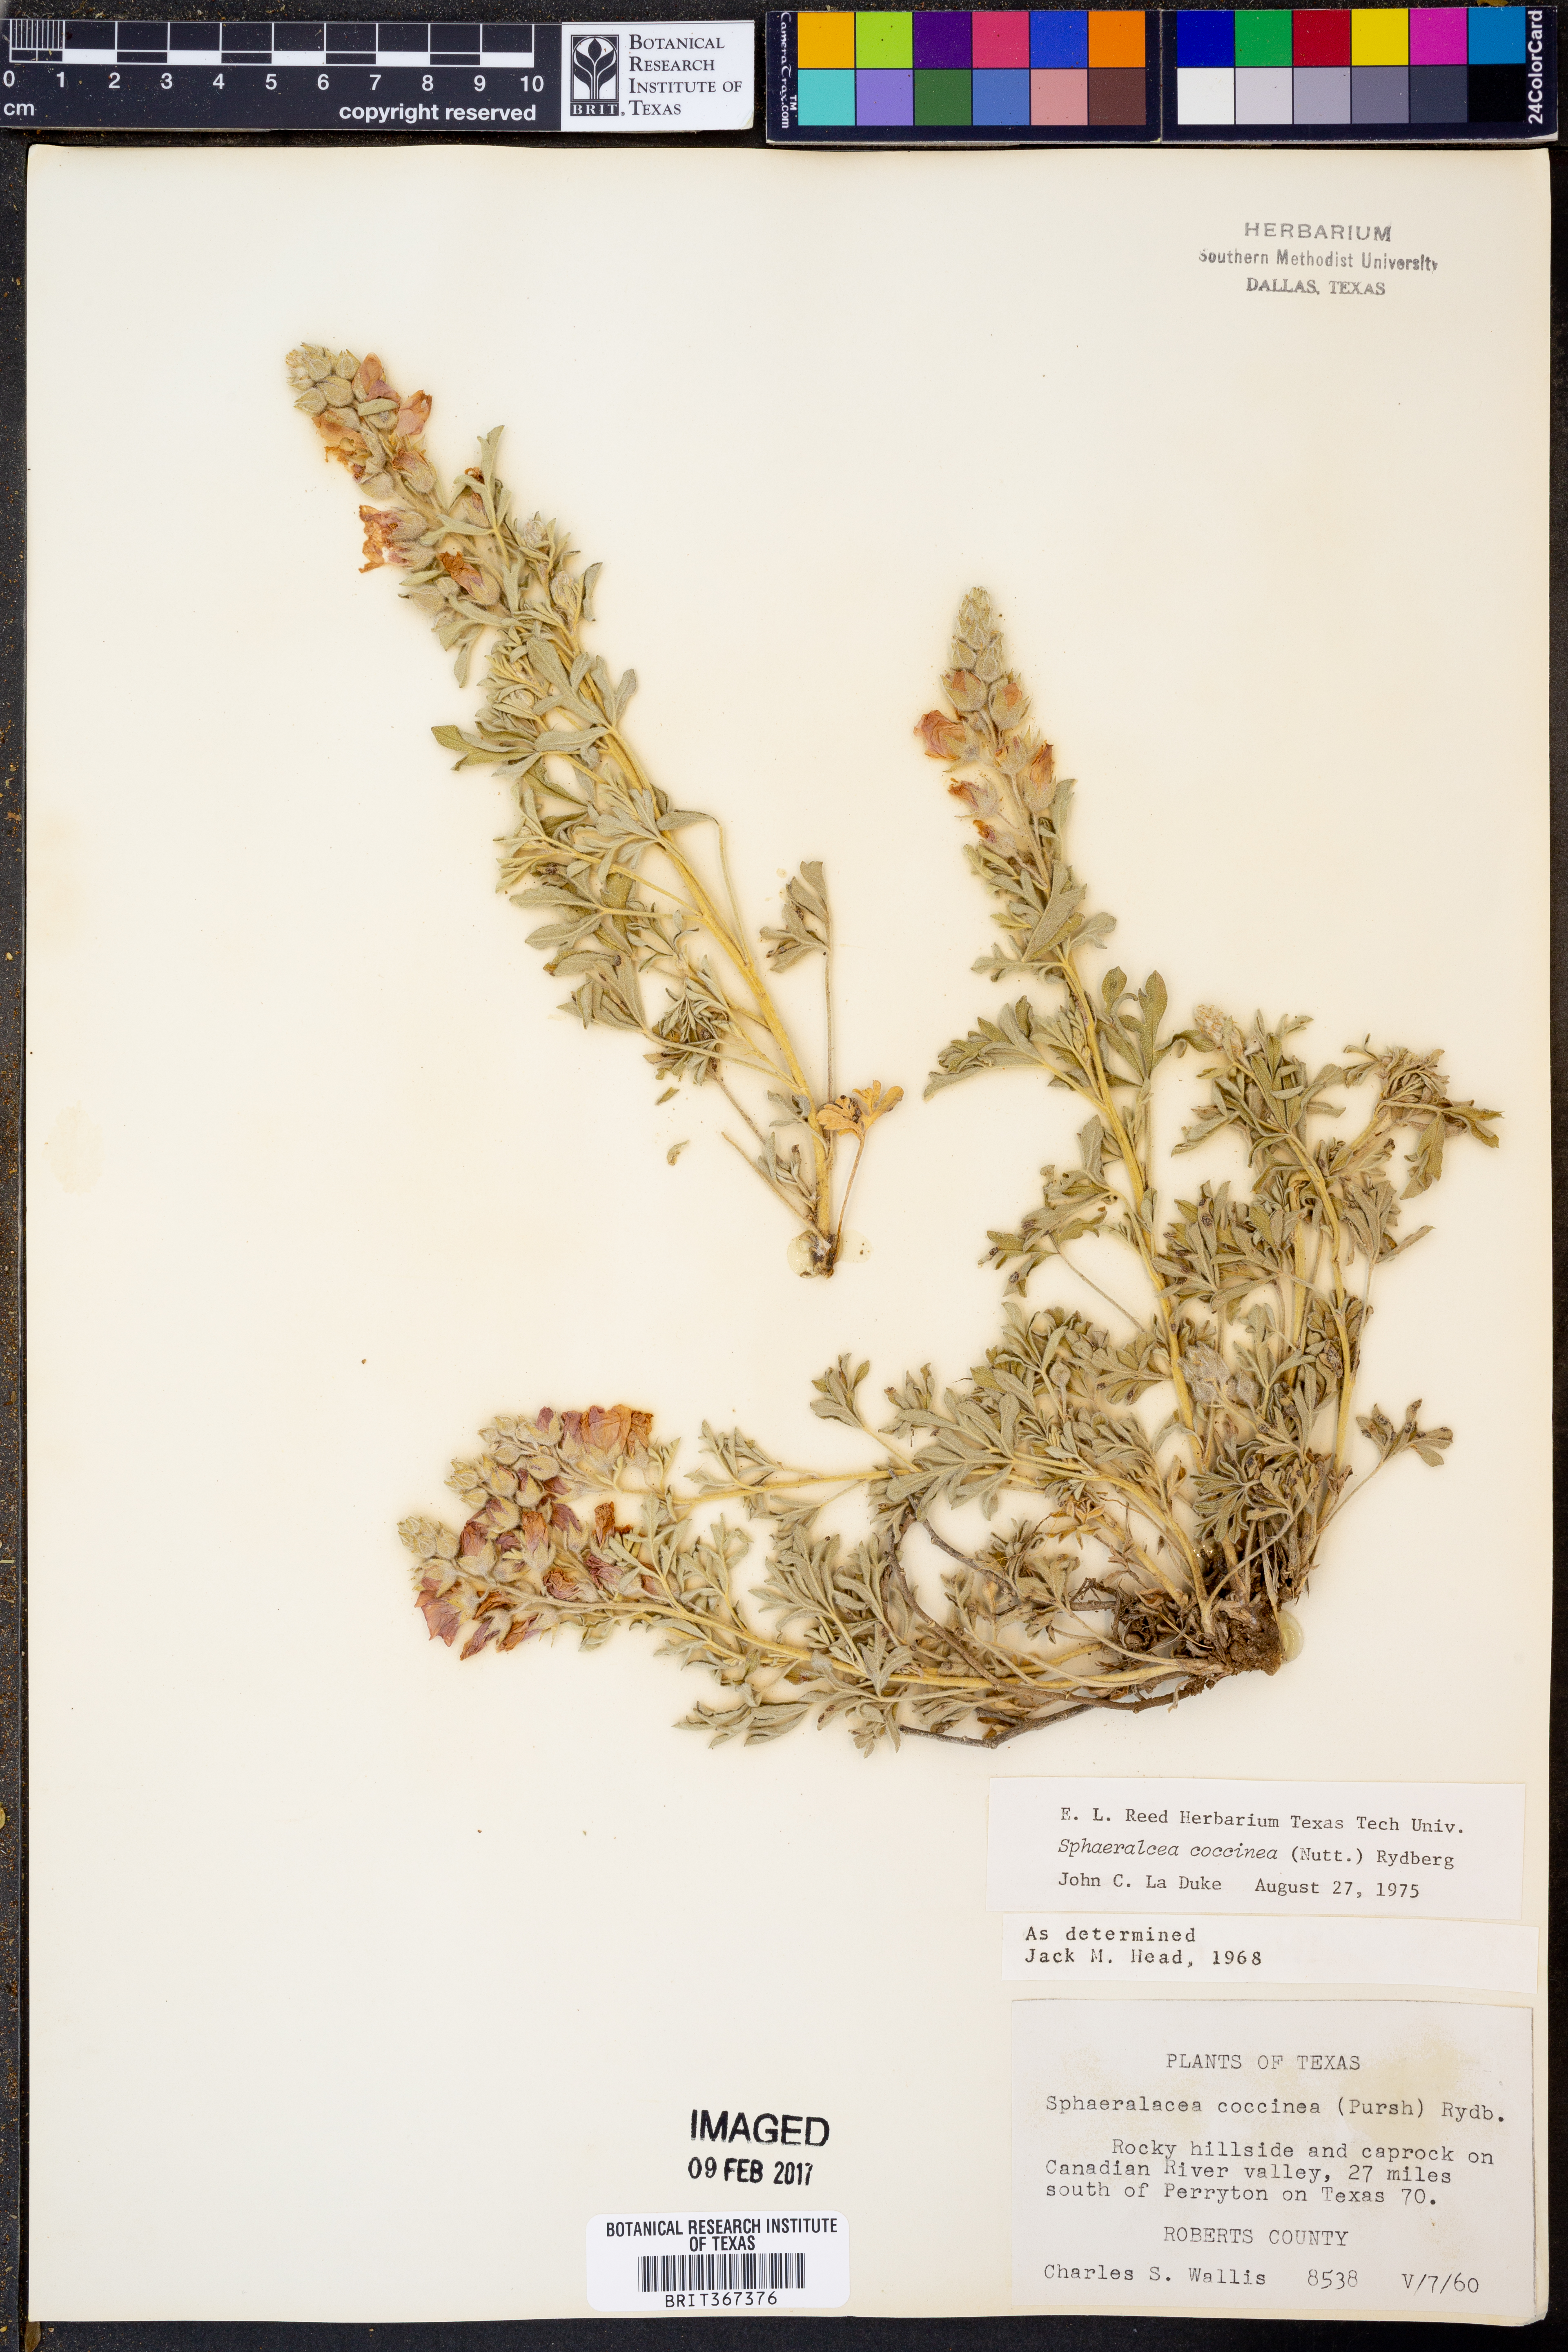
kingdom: Plantae
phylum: Tracheophyta
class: Magnoliopsida
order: Malvales
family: Malvaceae
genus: Sphaeralcea
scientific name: Sphaeralcea coccinea
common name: Moss-rose
